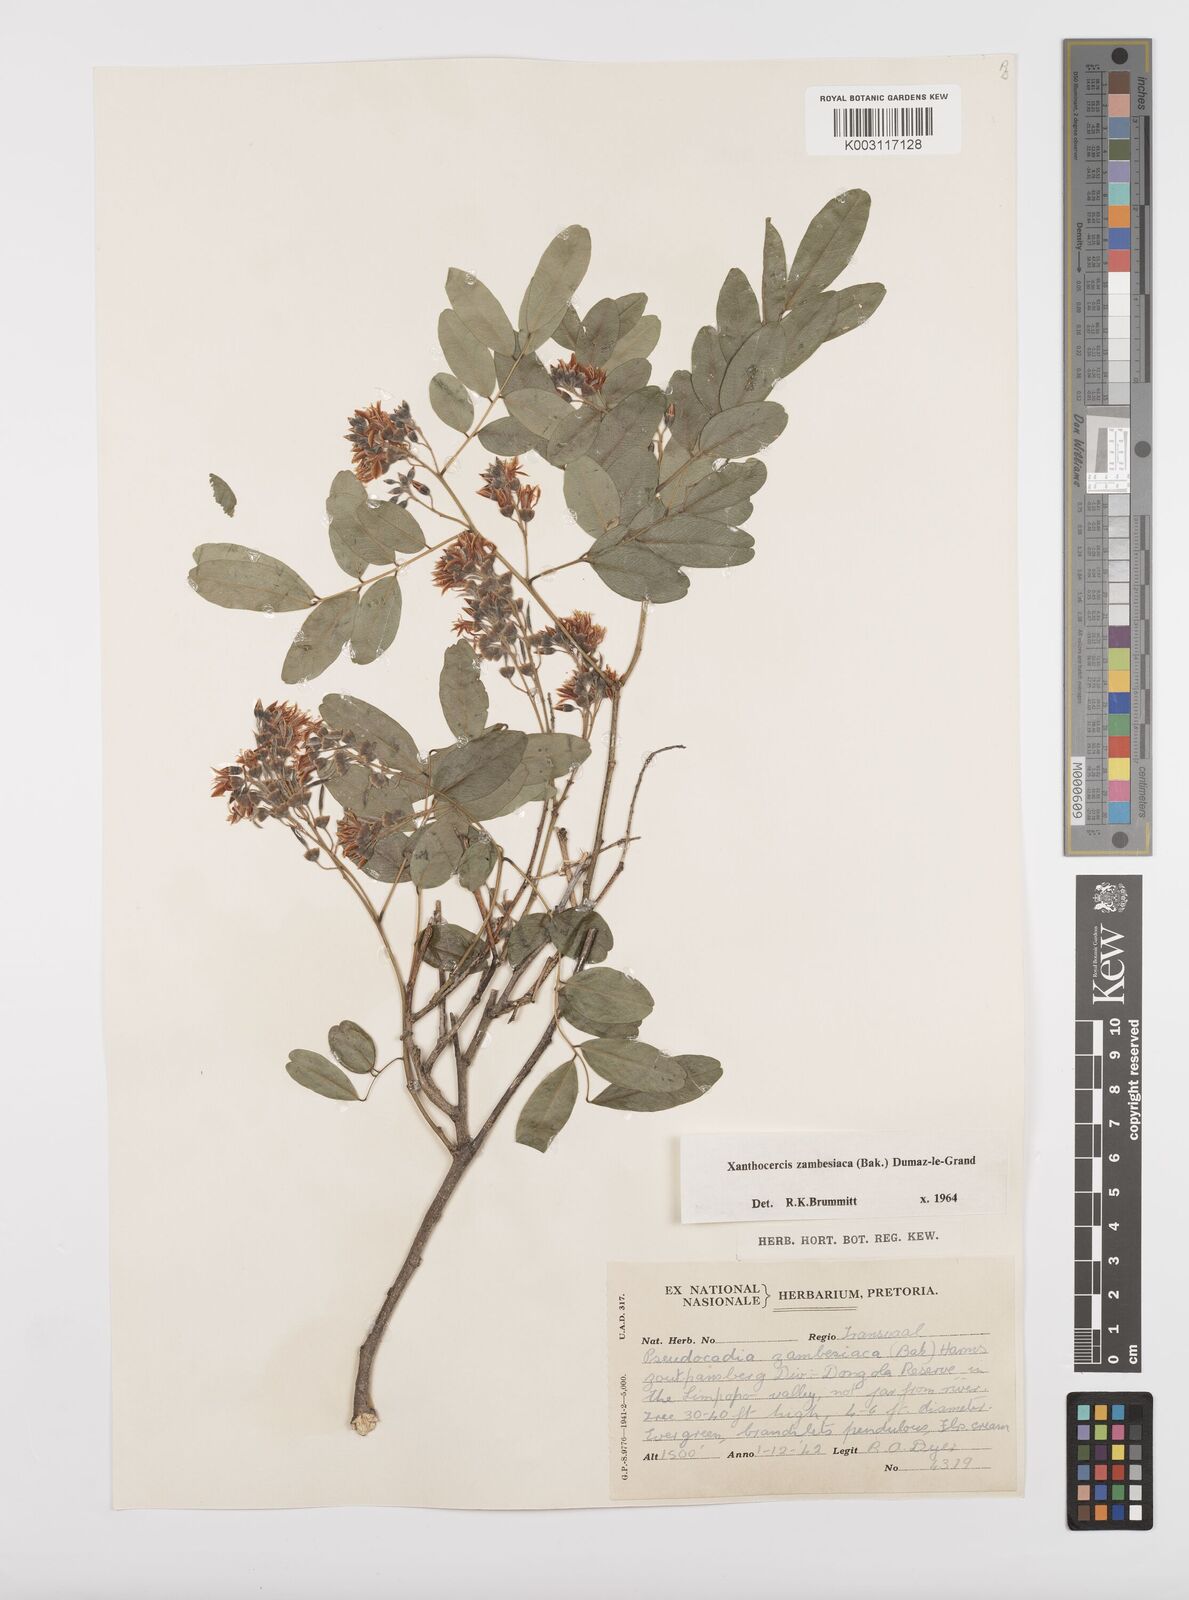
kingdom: Plantae
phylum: Tracheophyta
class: Magnoliopsida
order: Fabales
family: Fabaceae
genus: Xanthocercis
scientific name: Xanthocercis zambesiaca
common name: Nyala-tree
